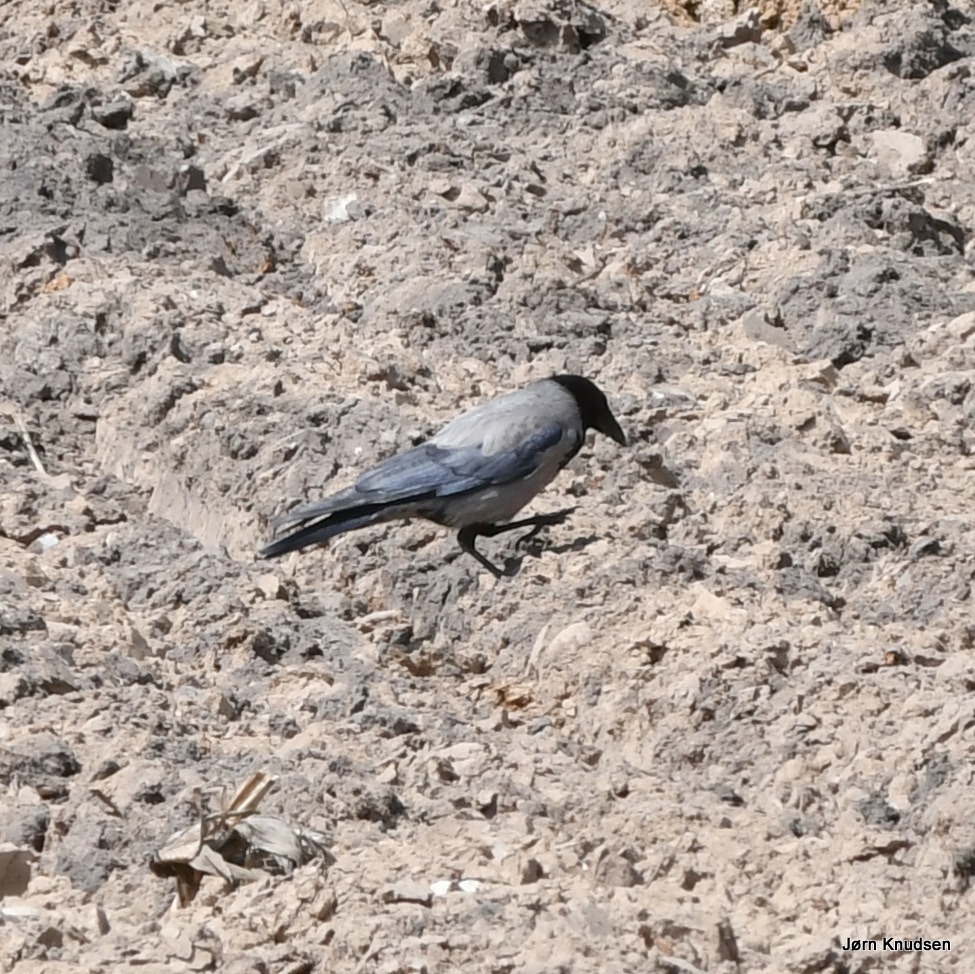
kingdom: Animalia
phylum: Chordata
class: Aves
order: Passeriformes
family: Corvidae
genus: Corvus
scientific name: Corvus cornix
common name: Gråkrage
